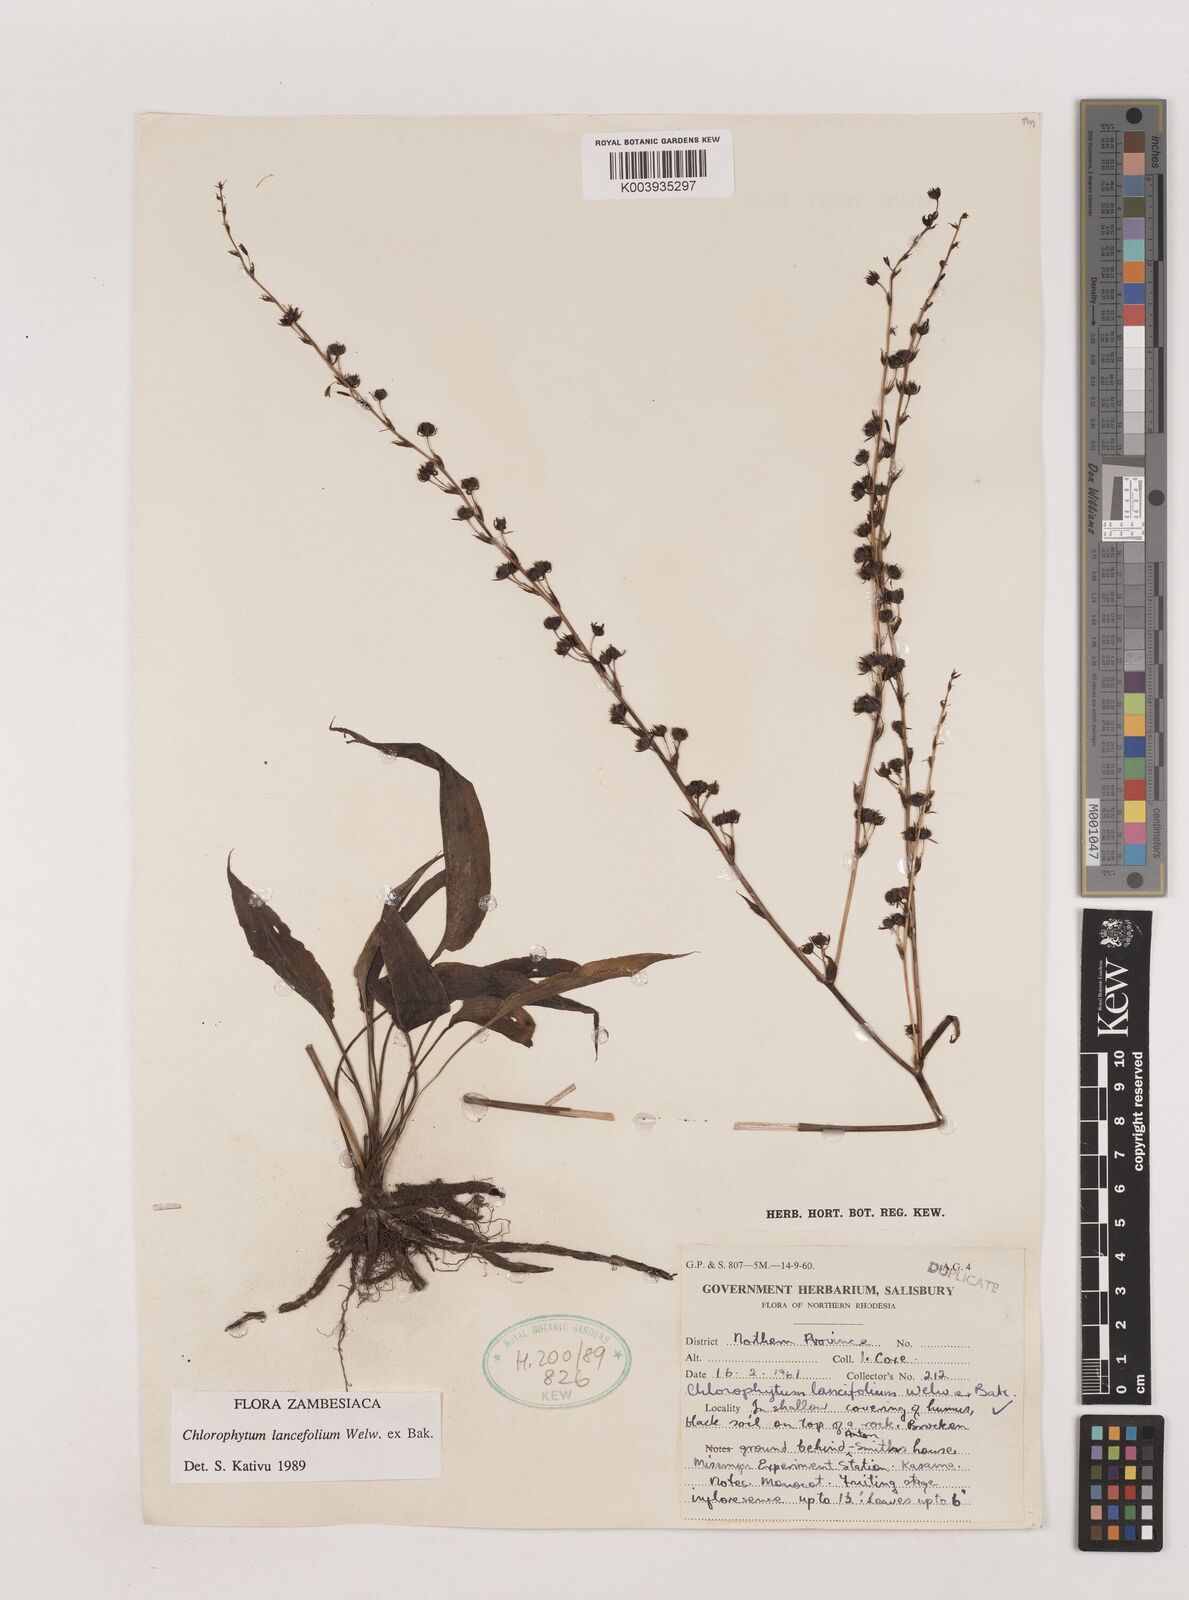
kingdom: Plantae
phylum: Tracheophyta
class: Liliopsida
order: Asparagales
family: Asparagaceae
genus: Chlorophytum
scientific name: Chlorophytum lancifolium
